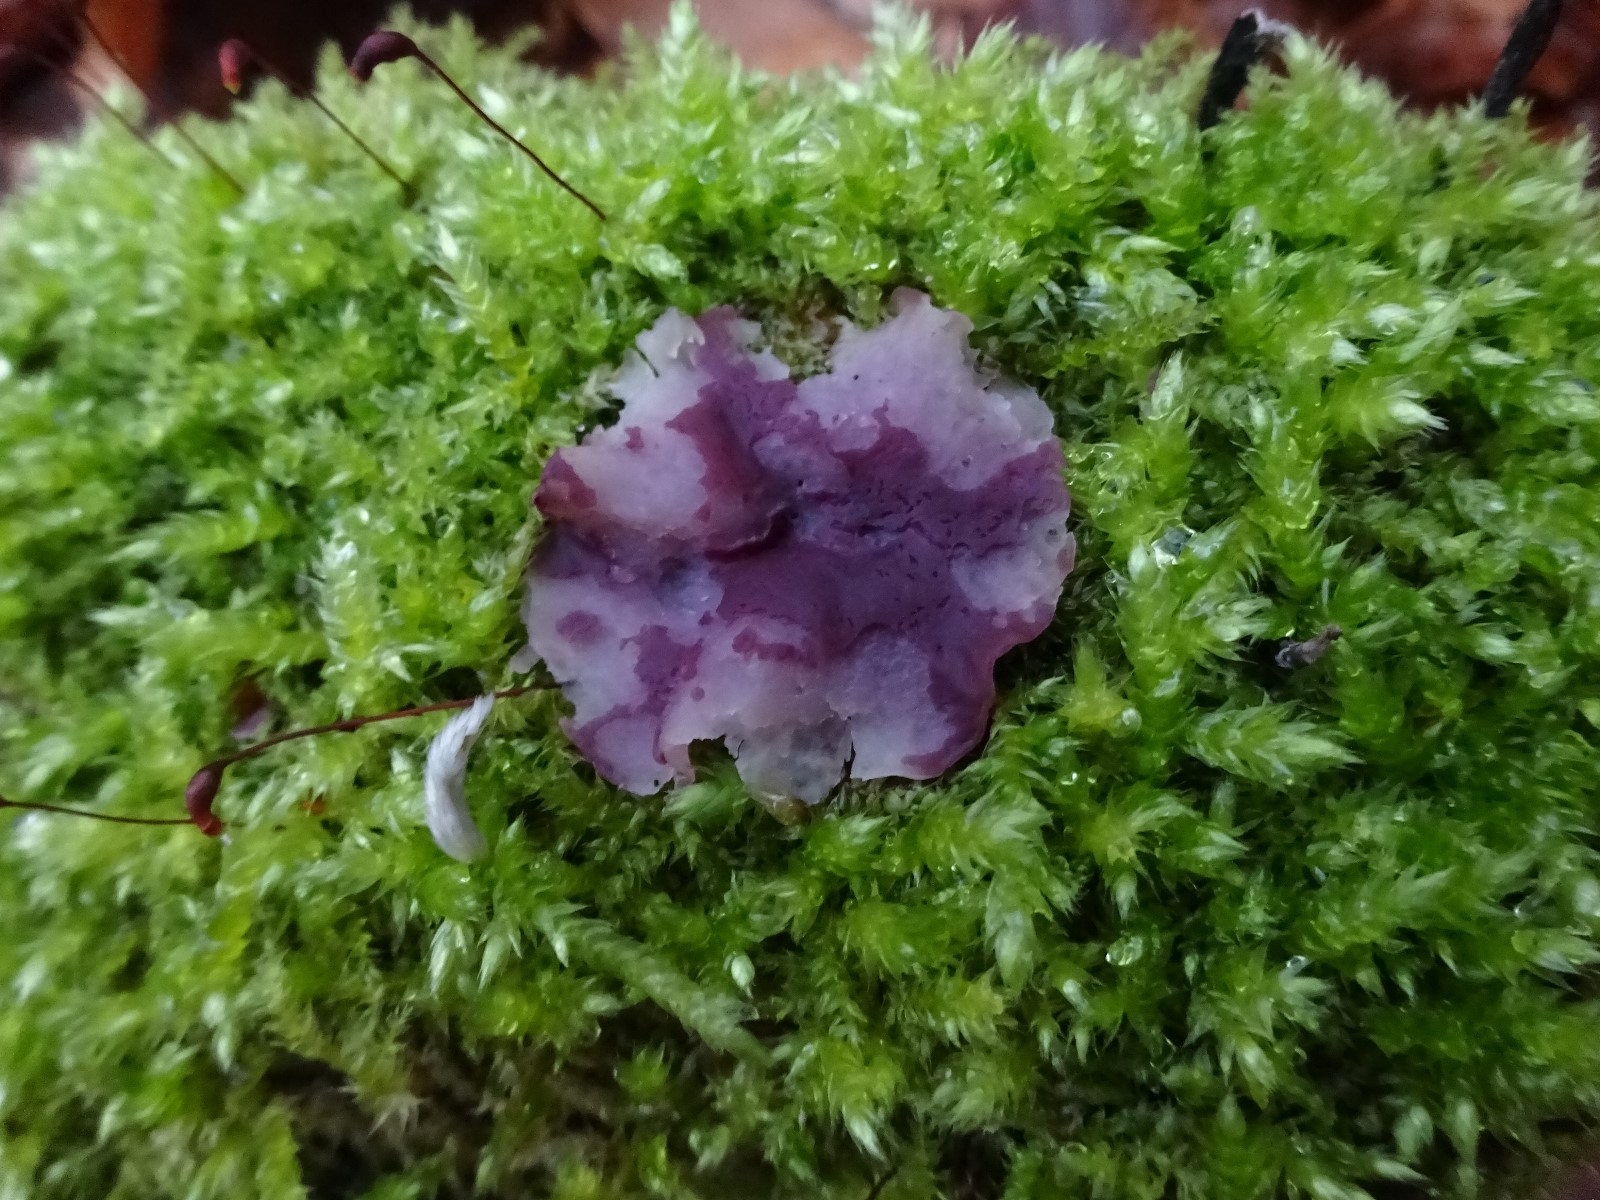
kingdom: Fungi
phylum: Ascomycota
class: Leotiomycetes
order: Helotiales
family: Gelatinodiscaceae
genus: Ascocoryne
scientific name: Ascocoryne cylichnium
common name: stor sejskive
